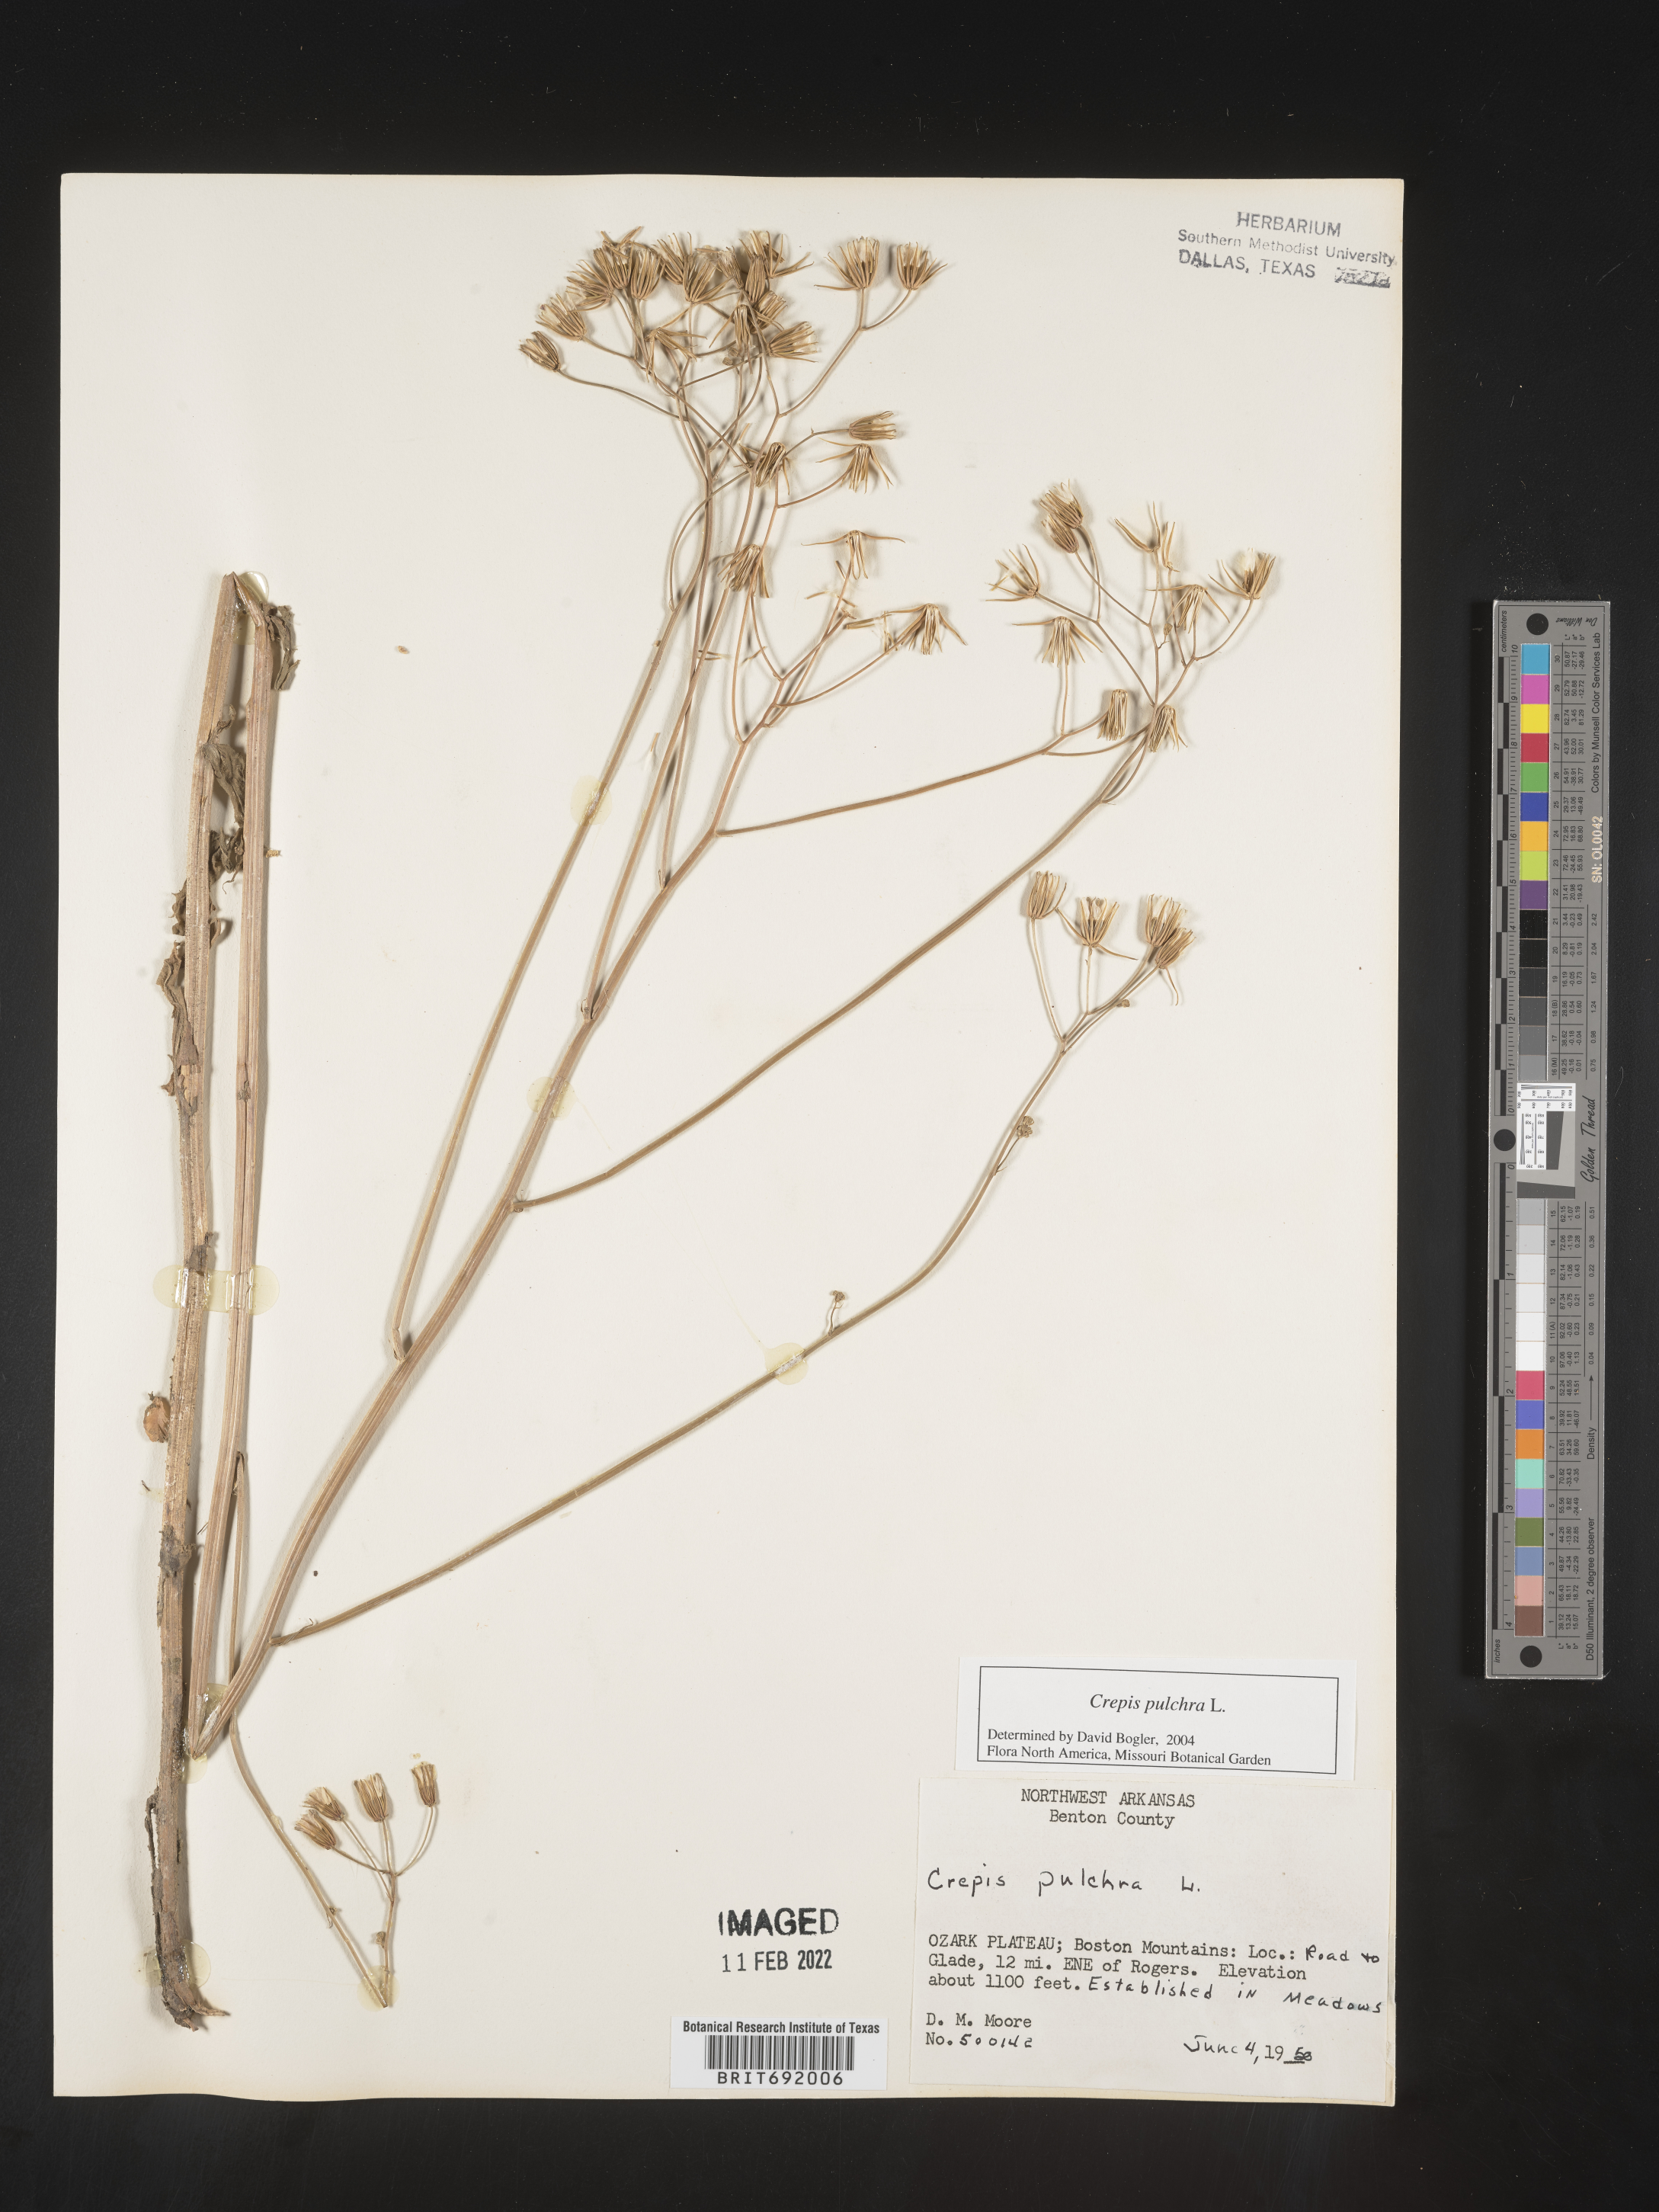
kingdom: Plantae
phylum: Tracheophyta
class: Magnoliopsida
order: Asterales
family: Asteraceae
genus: Crepis
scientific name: Crepis pulchra
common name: Hawk's-beard
